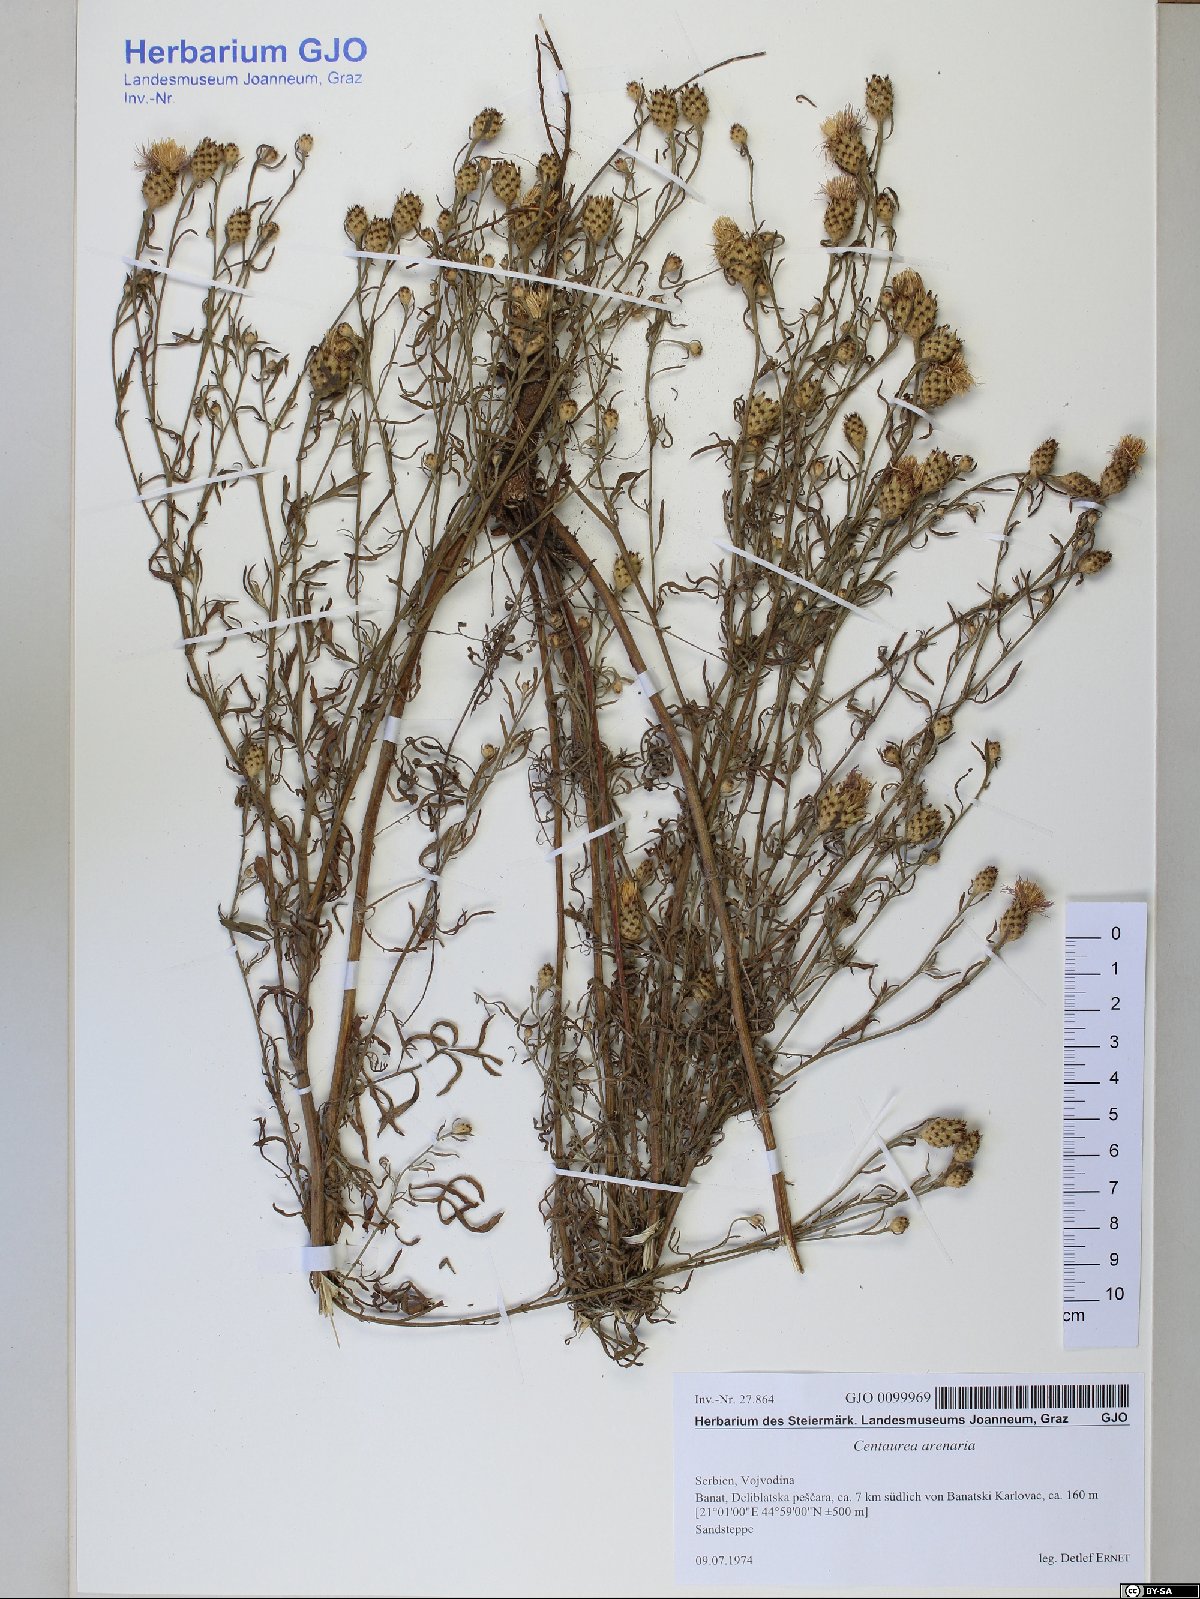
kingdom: Plantae
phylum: Tracheophyta
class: Magnoliopsida
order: Asterales
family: Asteraceae
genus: Centaurea
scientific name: Centaurea arenaria
